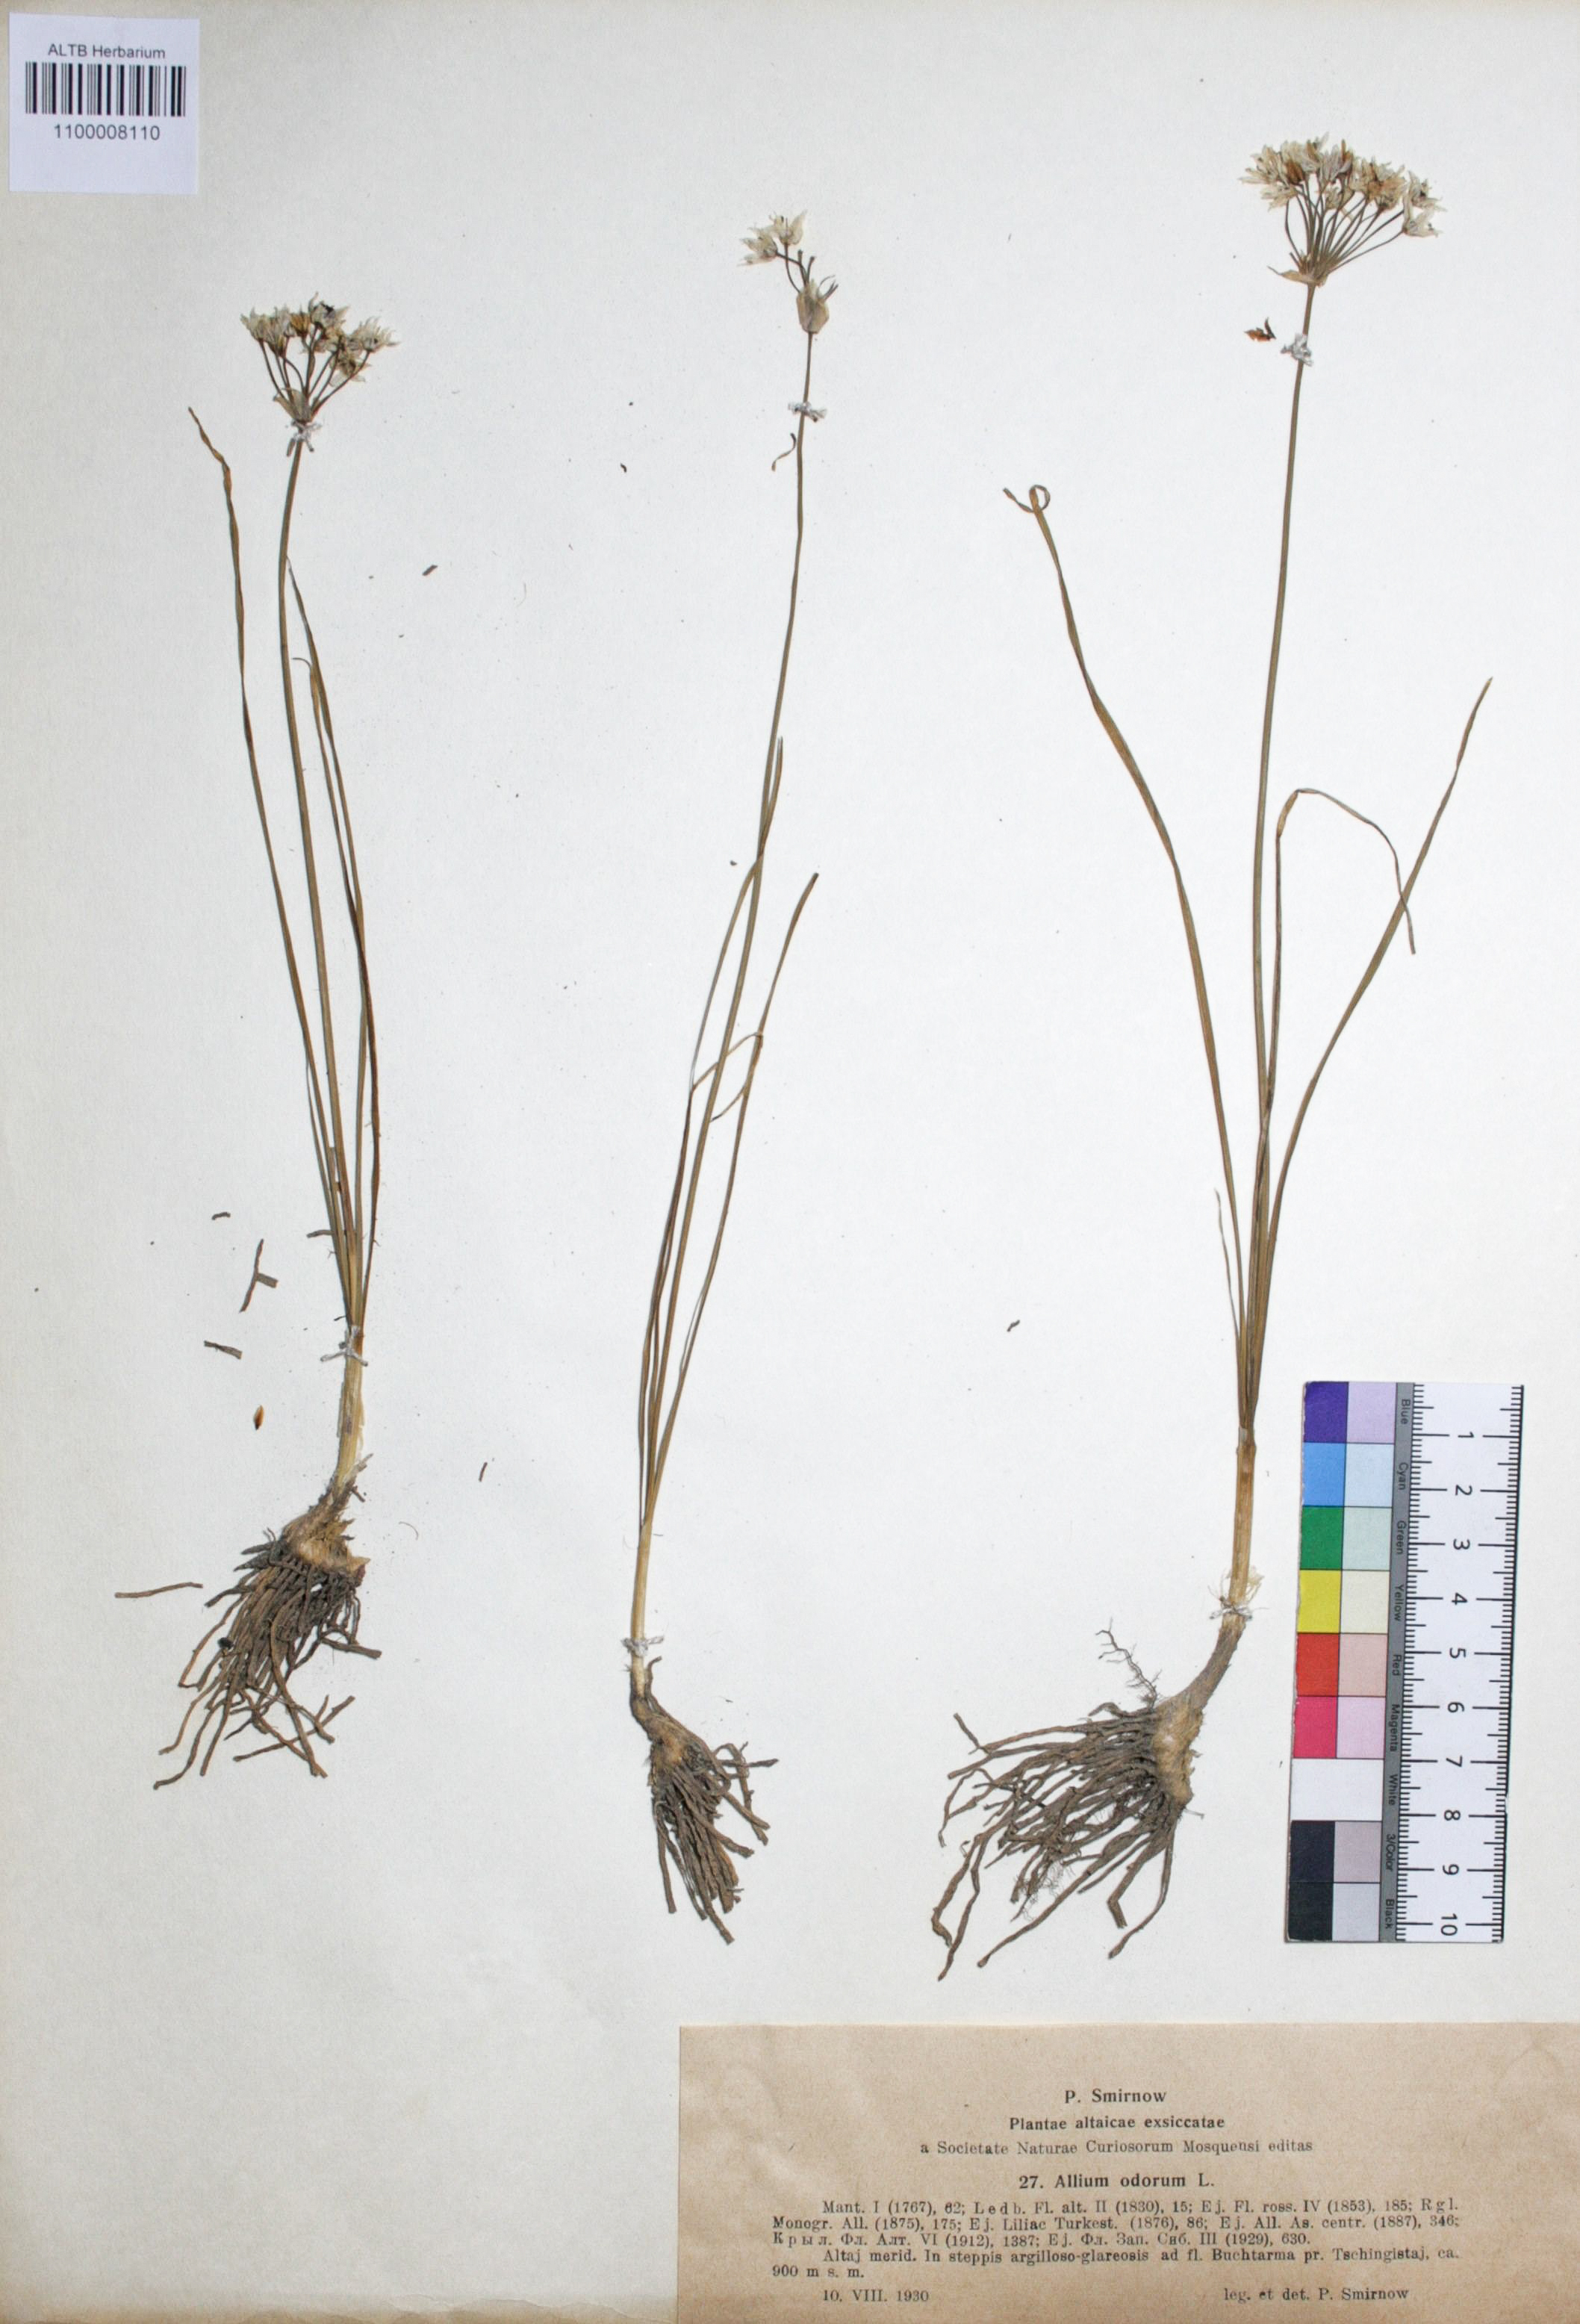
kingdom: Plantae
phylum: Tracheophyta
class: Liliopsida
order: Asparagales
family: Amaryllidaceae
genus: Allium
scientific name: Allium ramosum
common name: Fragrant garlic
